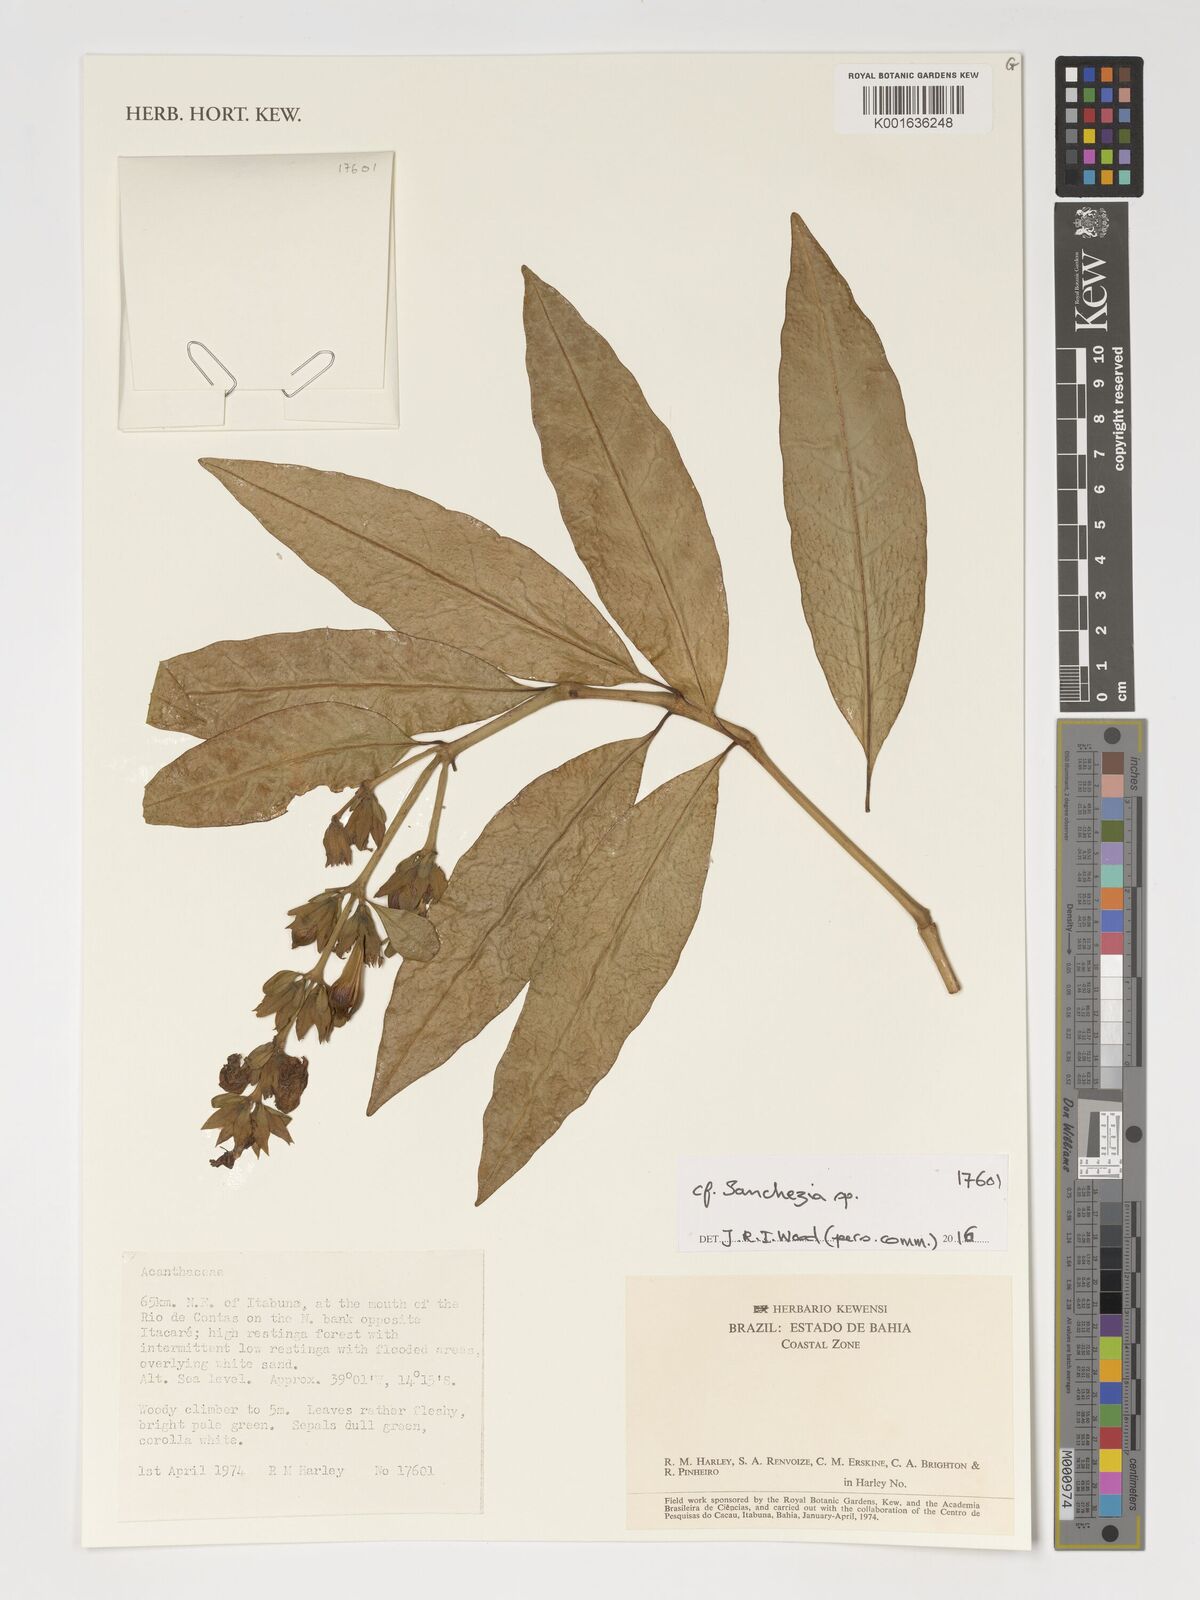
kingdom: Plantae
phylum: Tracheophyta
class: Magnoliopsida
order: Lamiales
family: Acanthaceae
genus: Sanchezia
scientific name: Sanchezia
